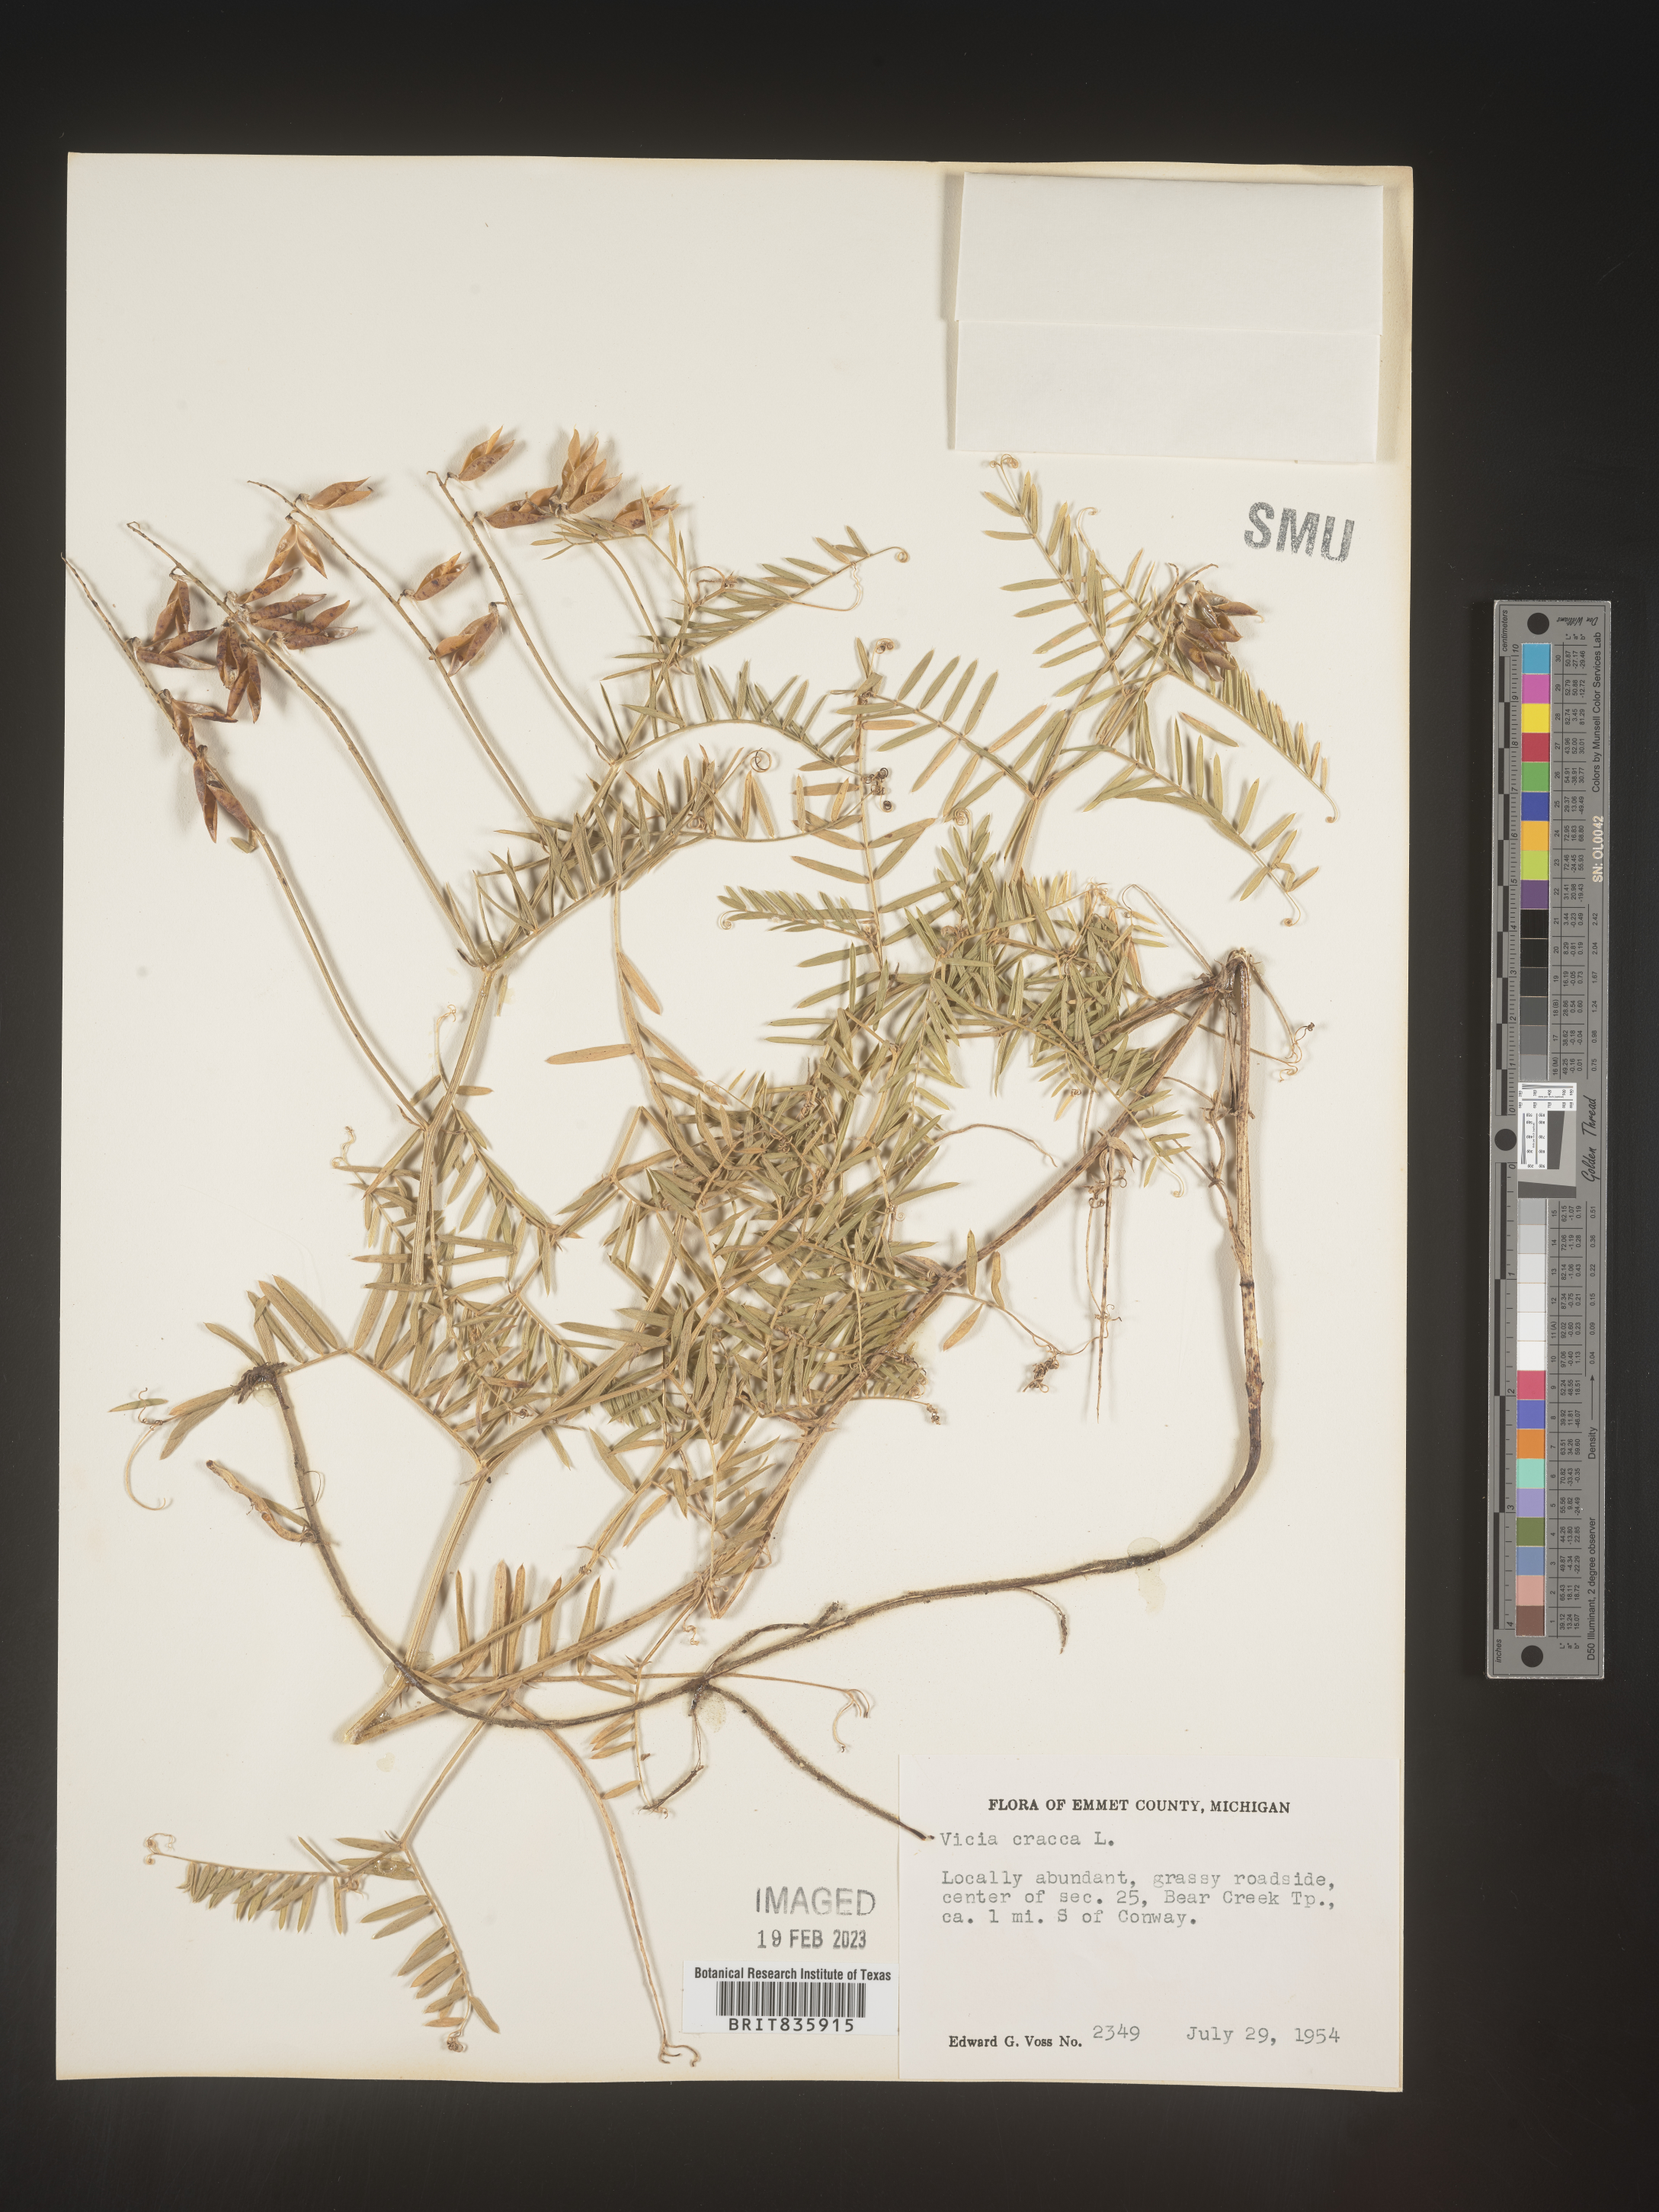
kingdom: Plantae
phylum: Tracheophyta
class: Magnoliopsida
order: Fabales
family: Fabaceae
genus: Vicia
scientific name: Vicia cracca
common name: Bird vetch
